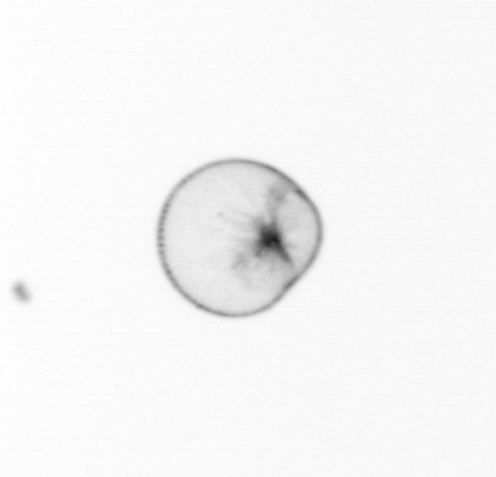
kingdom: Chromista
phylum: Myzozoa
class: Dinophyceae
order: Noctilucales
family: Noctilucaceae
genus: Noctiluca
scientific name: Noctiluca scintillans
